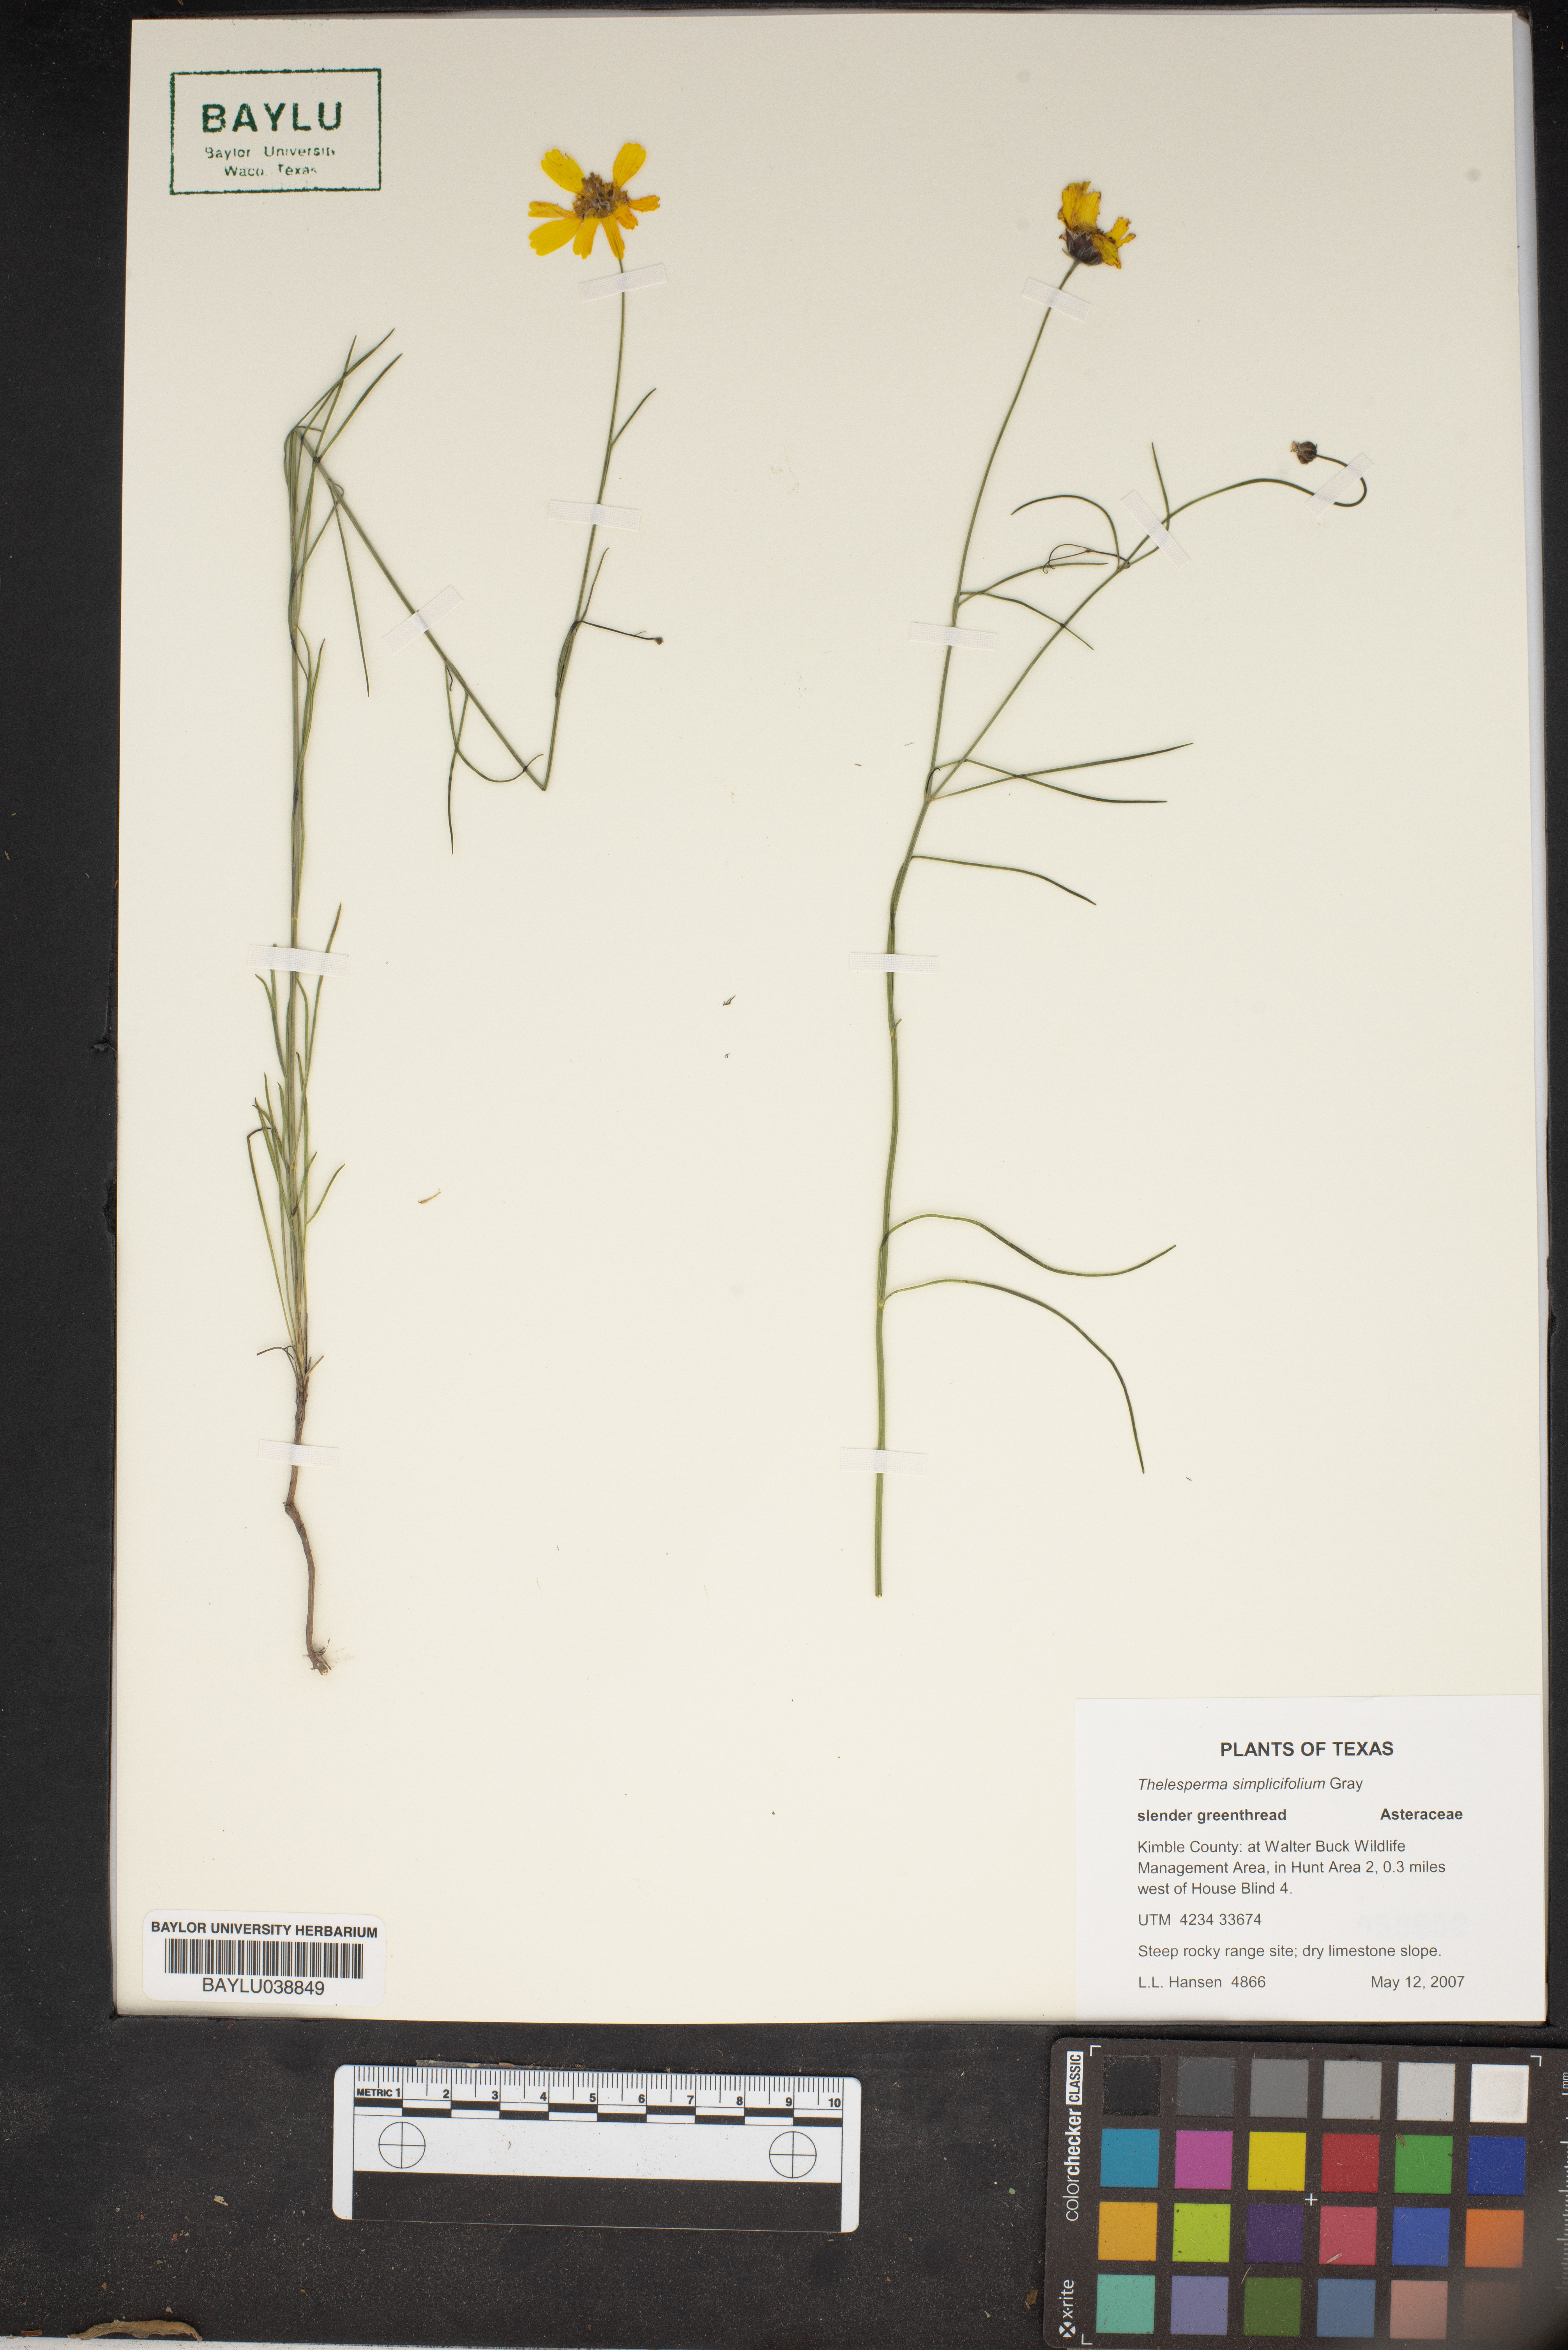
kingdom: Plantae
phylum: Tracheophyta
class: Magnoliopsida
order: Asterales
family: Asteraceae
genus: Thelesperma
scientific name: Thelesperma simplicifolium
